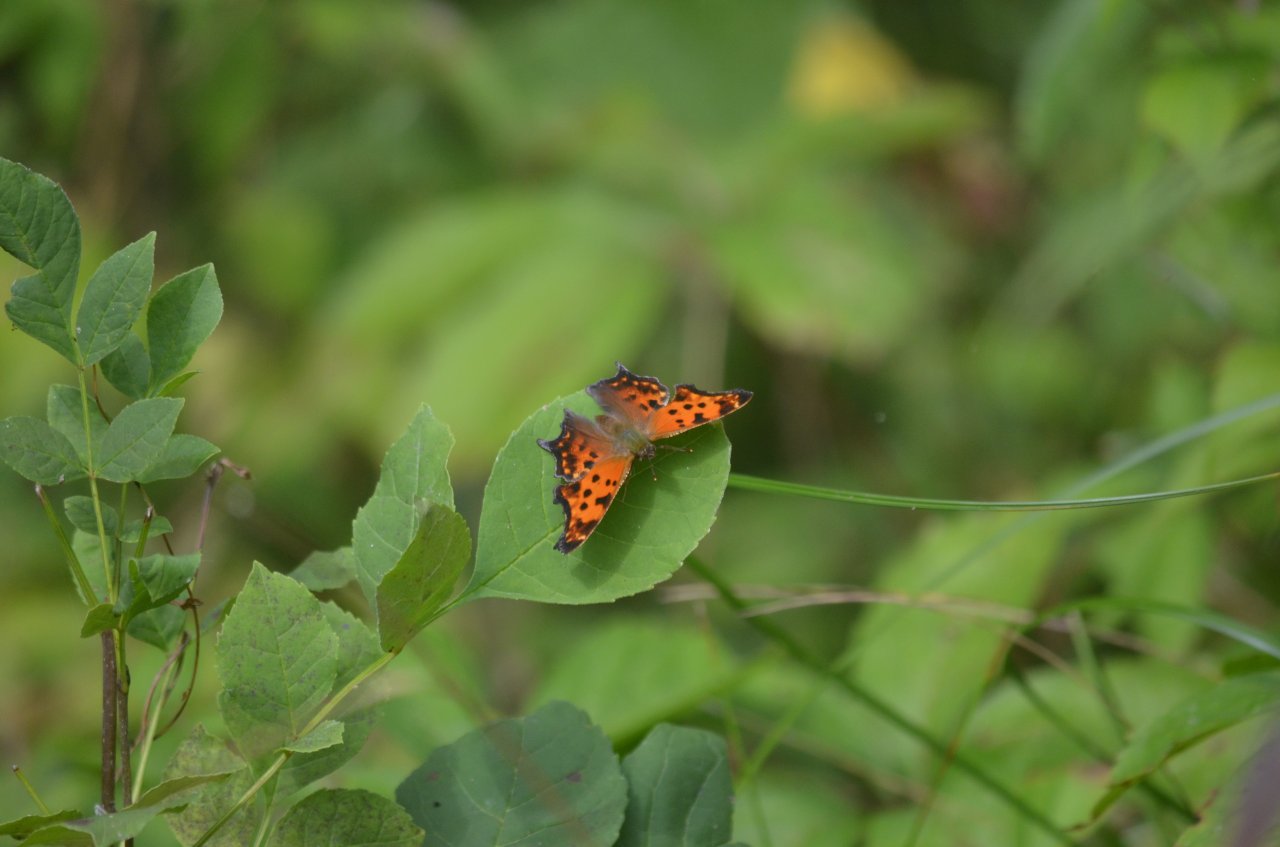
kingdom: Animalia
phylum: Arthropoda
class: Insecta
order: Lepidoptera
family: Nymphalidae
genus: Polygonia
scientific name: Polygonia comma
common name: Eastern Comma
